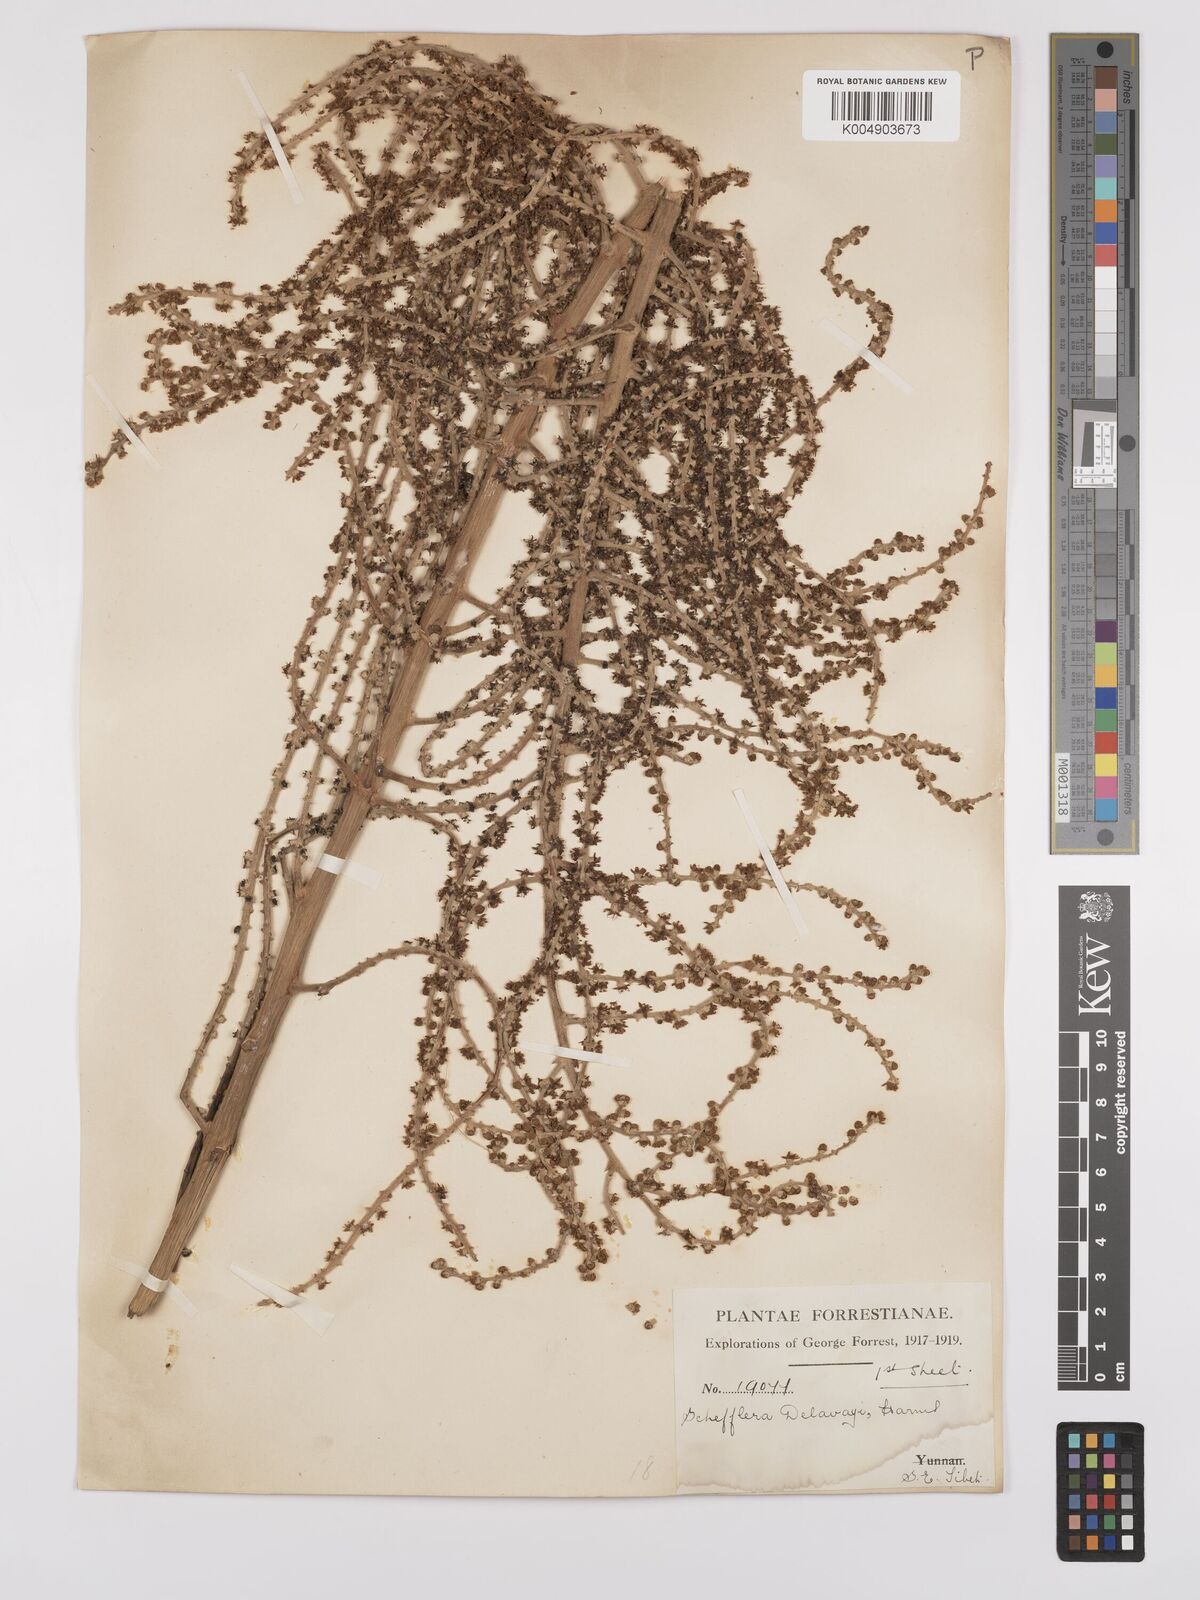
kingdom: Plantae
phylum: Tracheophyta
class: Magnoliopsida
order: Apiales
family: Araliaceae
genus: Heptapleurum
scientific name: Heptapleurum delavayi
